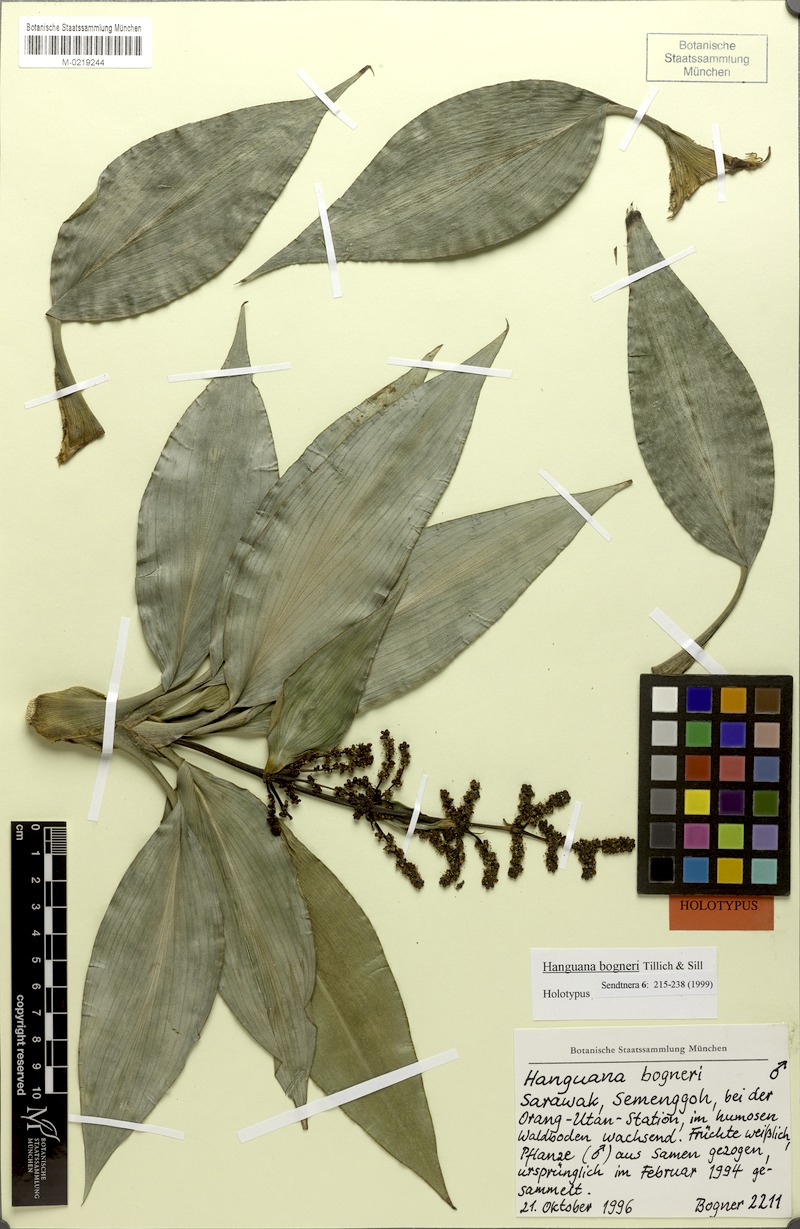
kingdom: Plantae
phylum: Tracheophyta
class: Liliopsida
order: Commelinales
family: Hanguanaceae
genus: Hanguana
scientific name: Hanguana bogneri
